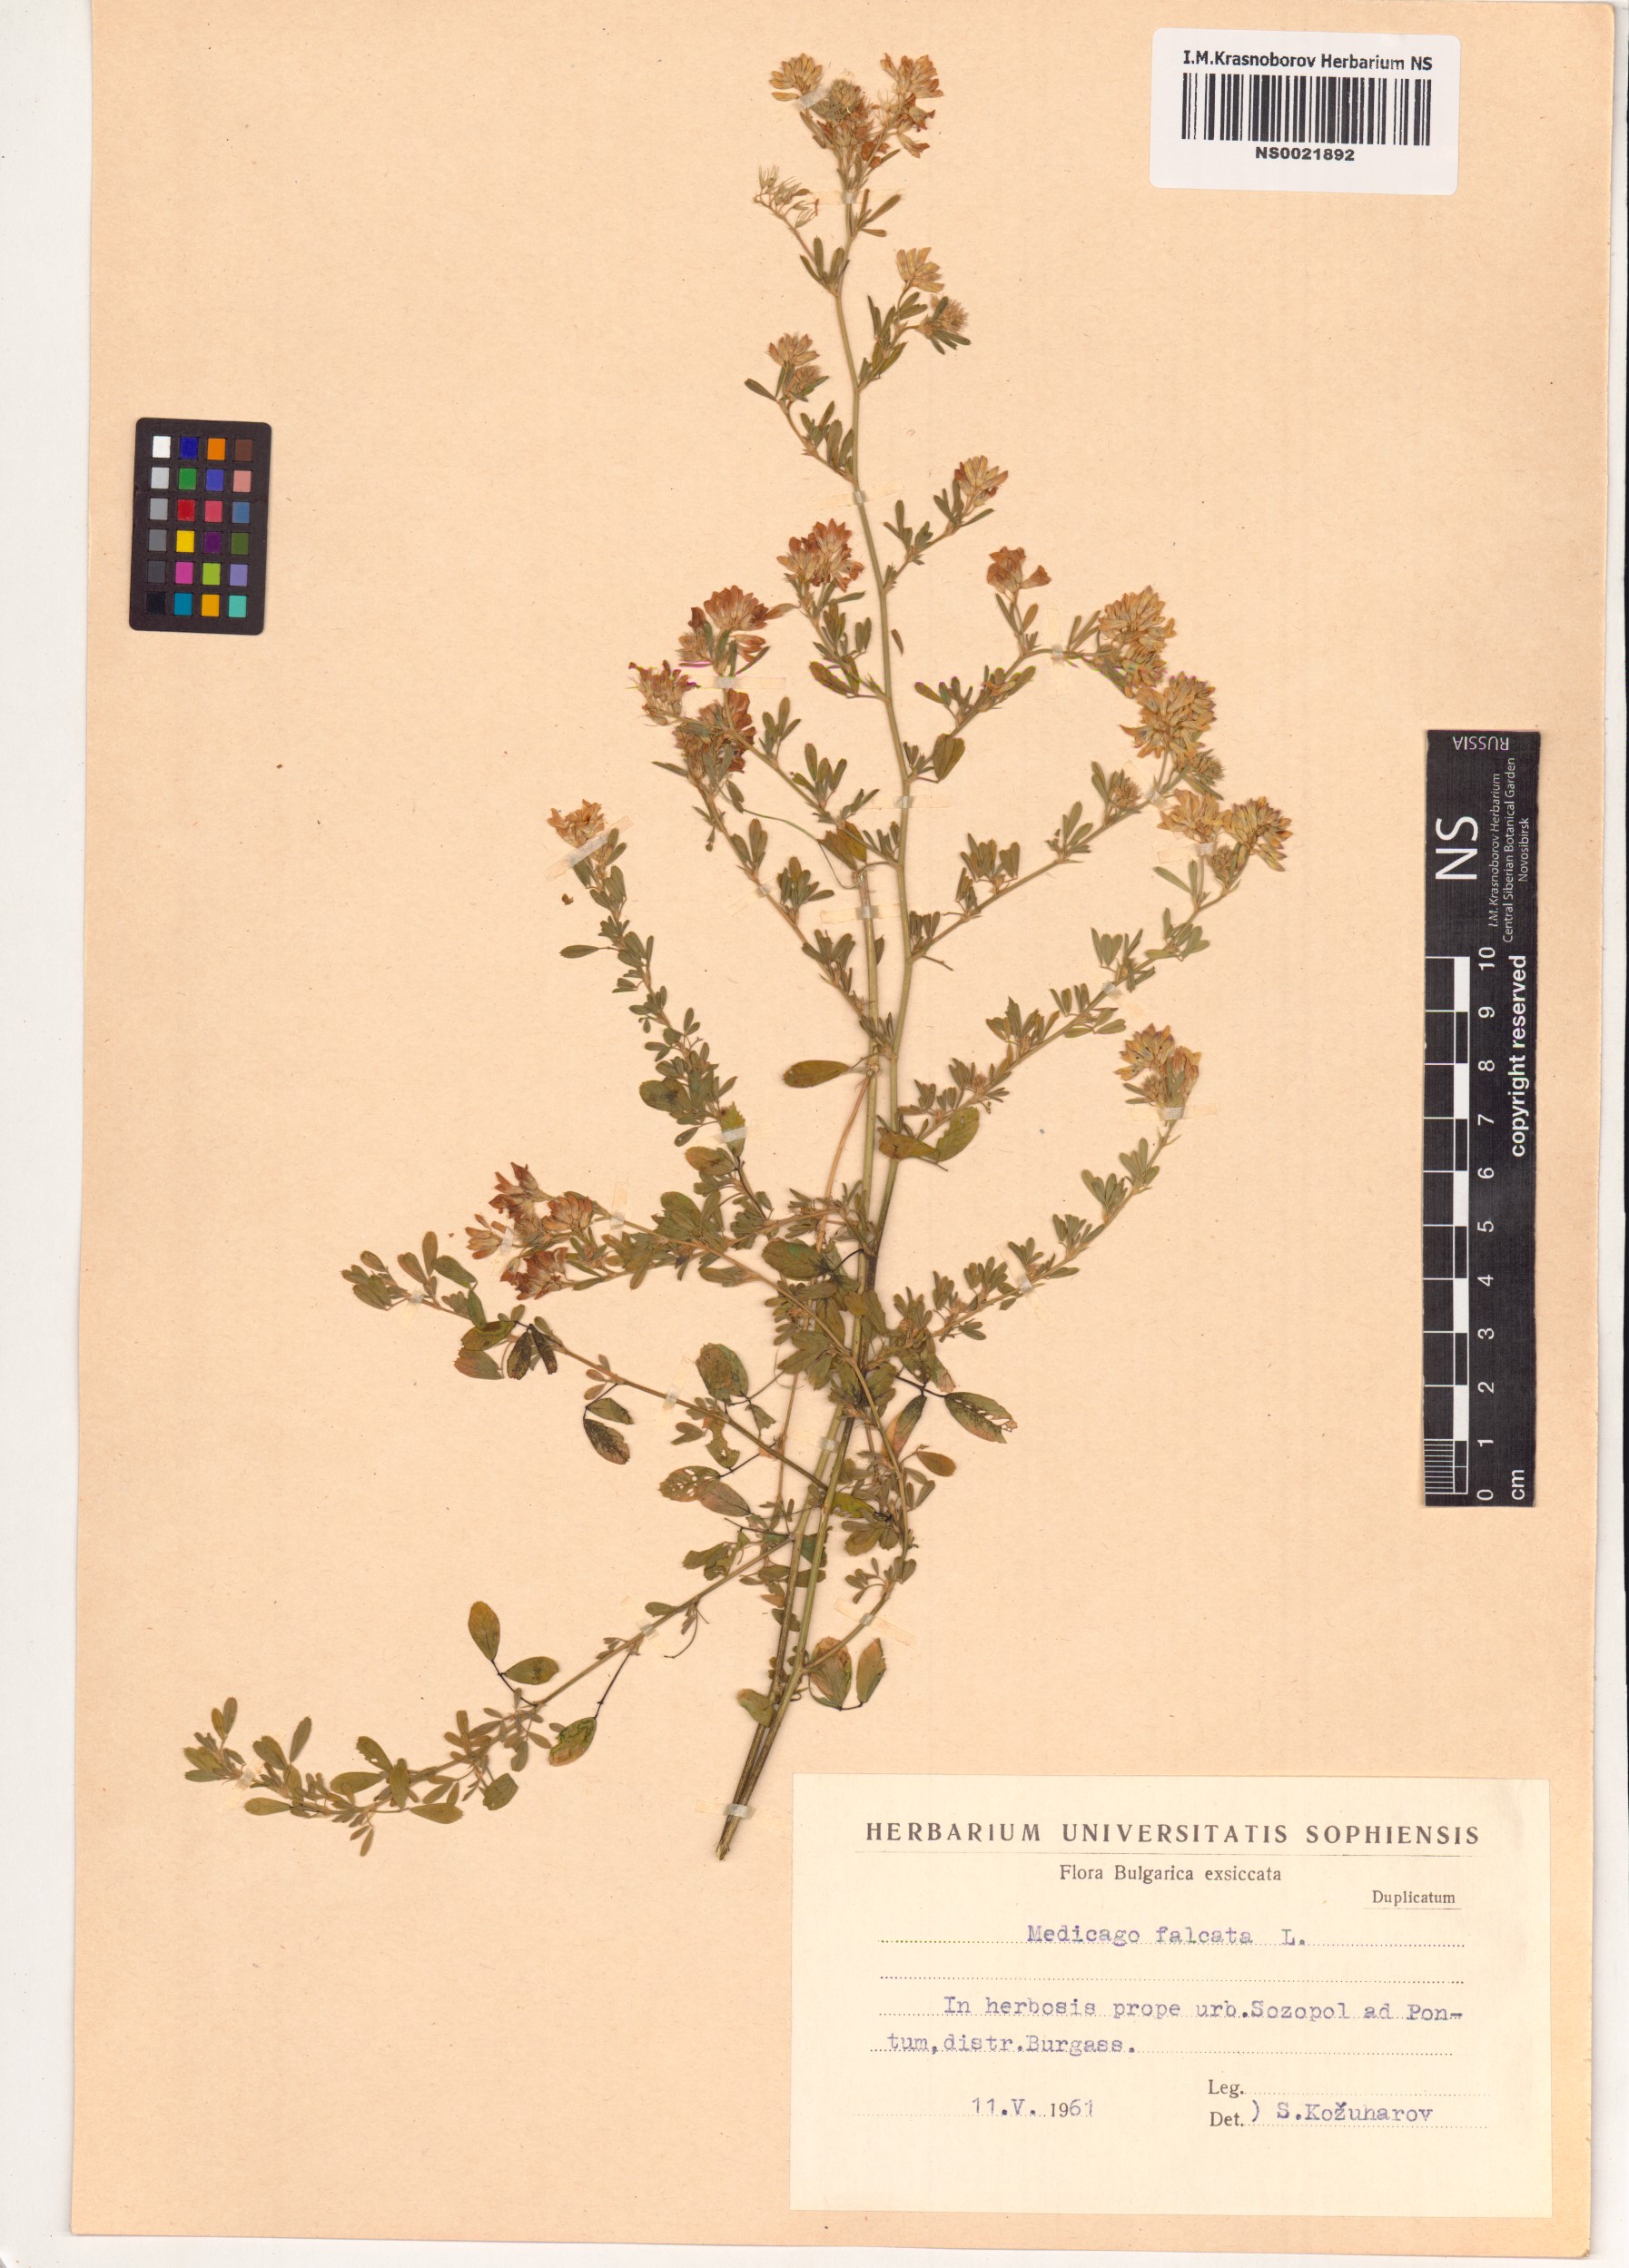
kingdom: Plantae
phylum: Tracheophyta
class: Magnoliopsida
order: Fabales
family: Fabaceae
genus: Medicago
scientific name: Medicago falcata
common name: Sickle medick
